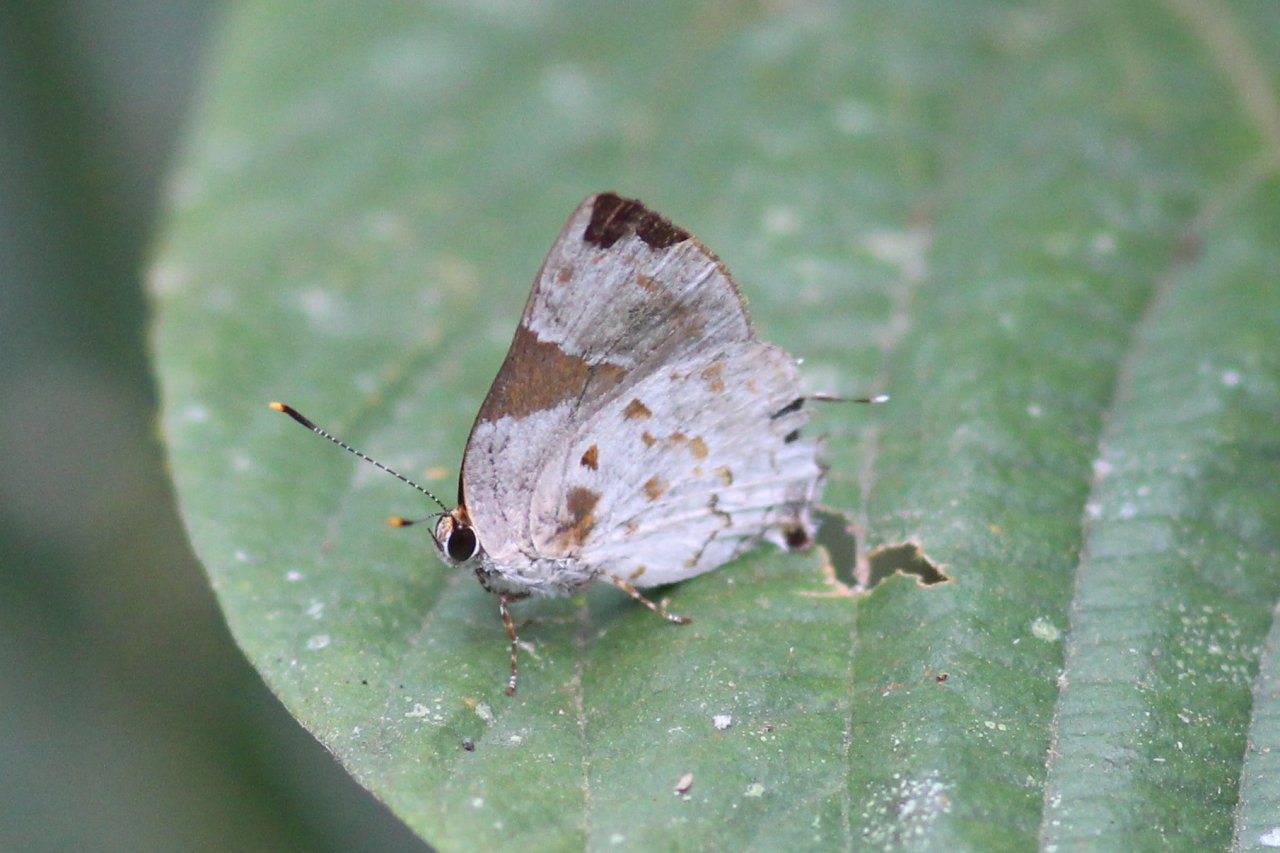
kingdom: Animalia
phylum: Arthropoda
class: Insecta
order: Lepidoptera
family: Lycaenidae
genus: Thecla
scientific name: Thecla cydrara
